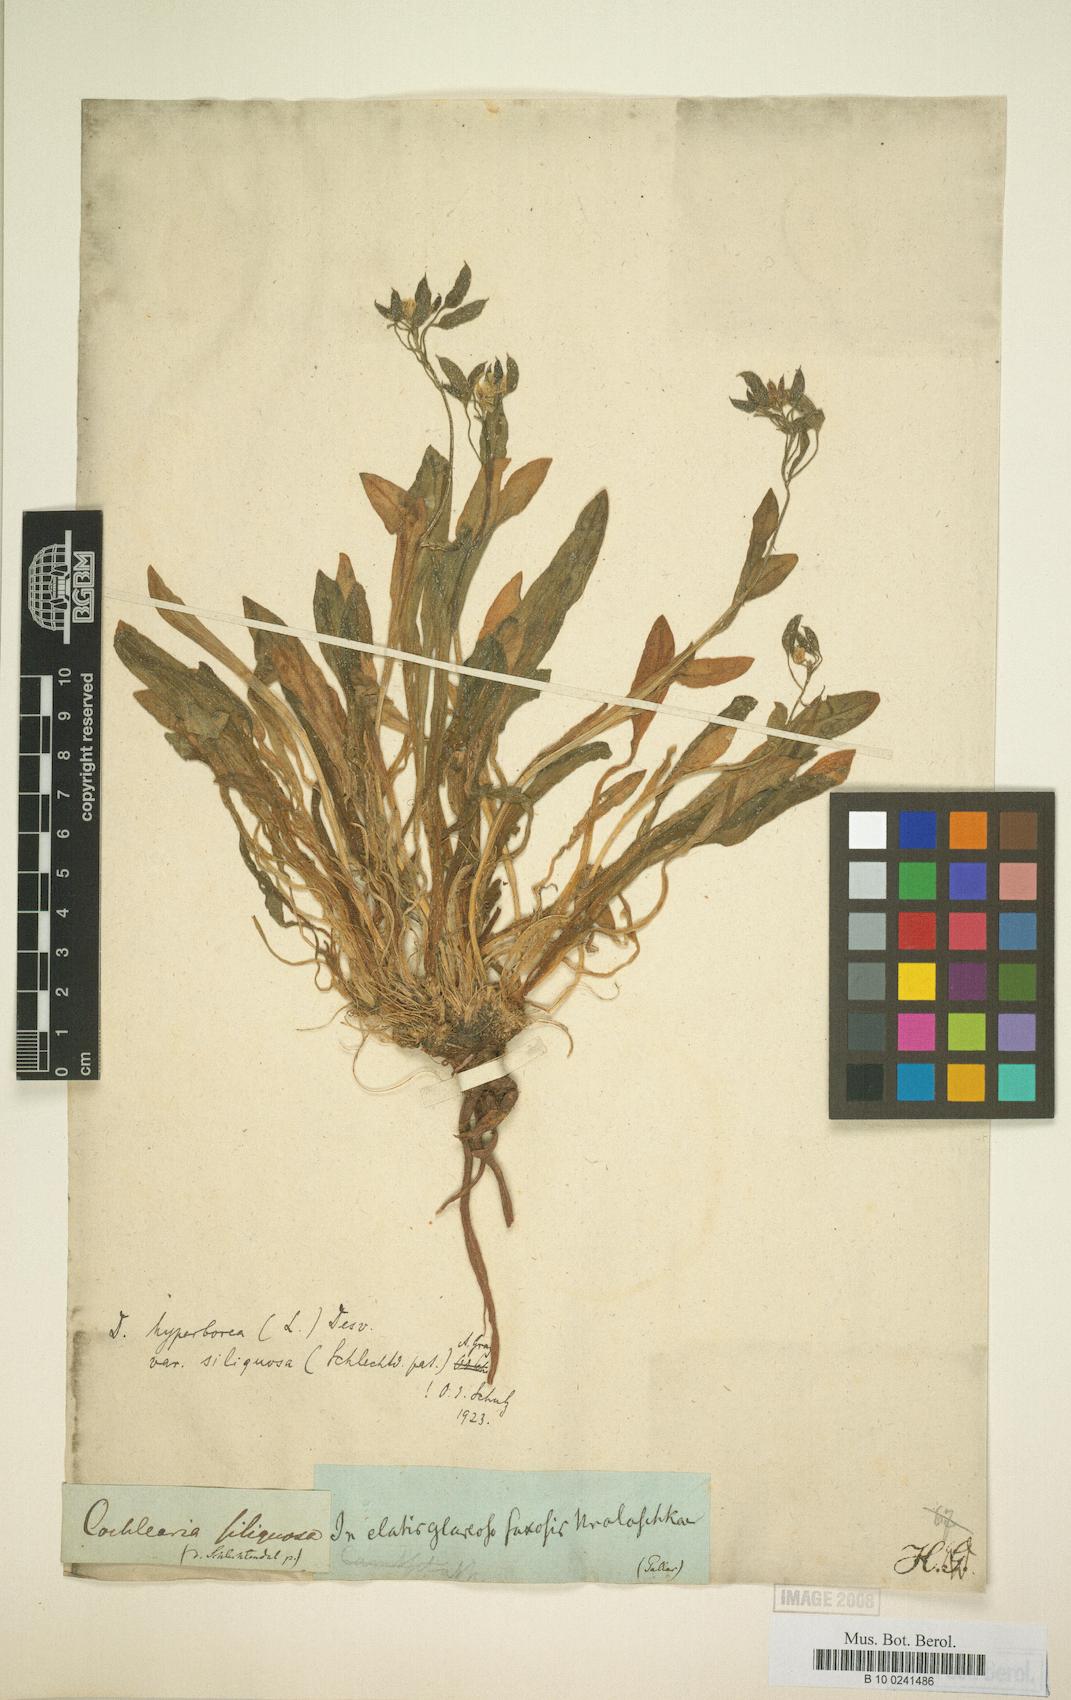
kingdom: Plantae
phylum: Tracheophyta
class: Magnoliopsida
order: Brassicales
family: Brassicaceae
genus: Draba
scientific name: Draba siliquosa
